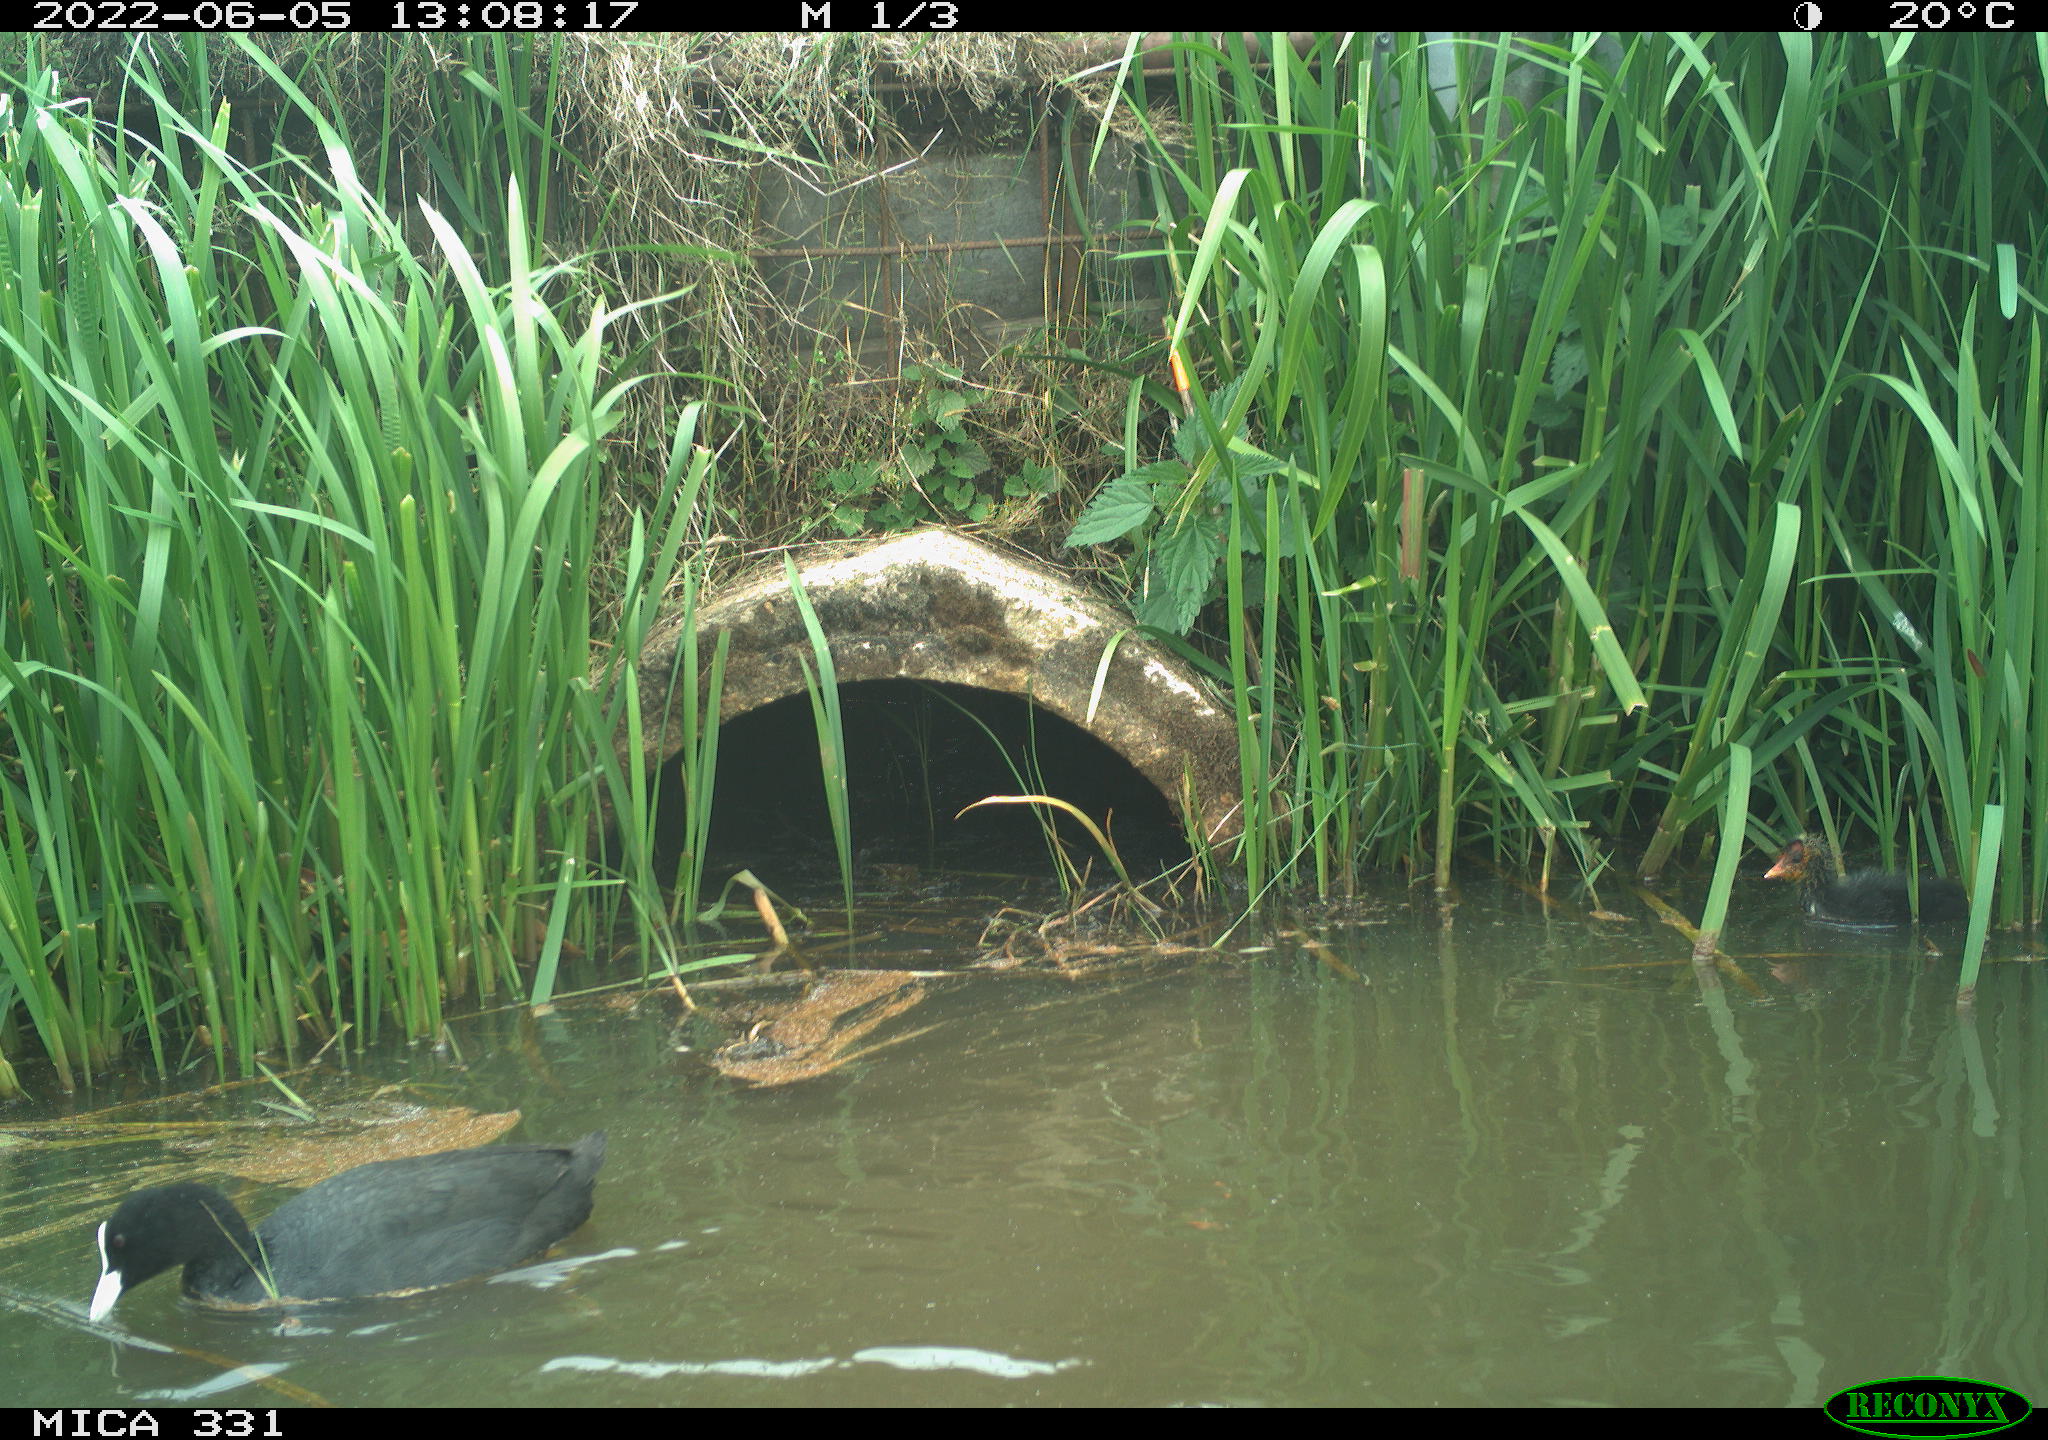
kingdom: Animalia
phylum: Chordata
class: Aves
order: Gruiformes
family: Rallidae
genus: Fulica
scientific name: Fulica atra
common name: Eurasian coot
